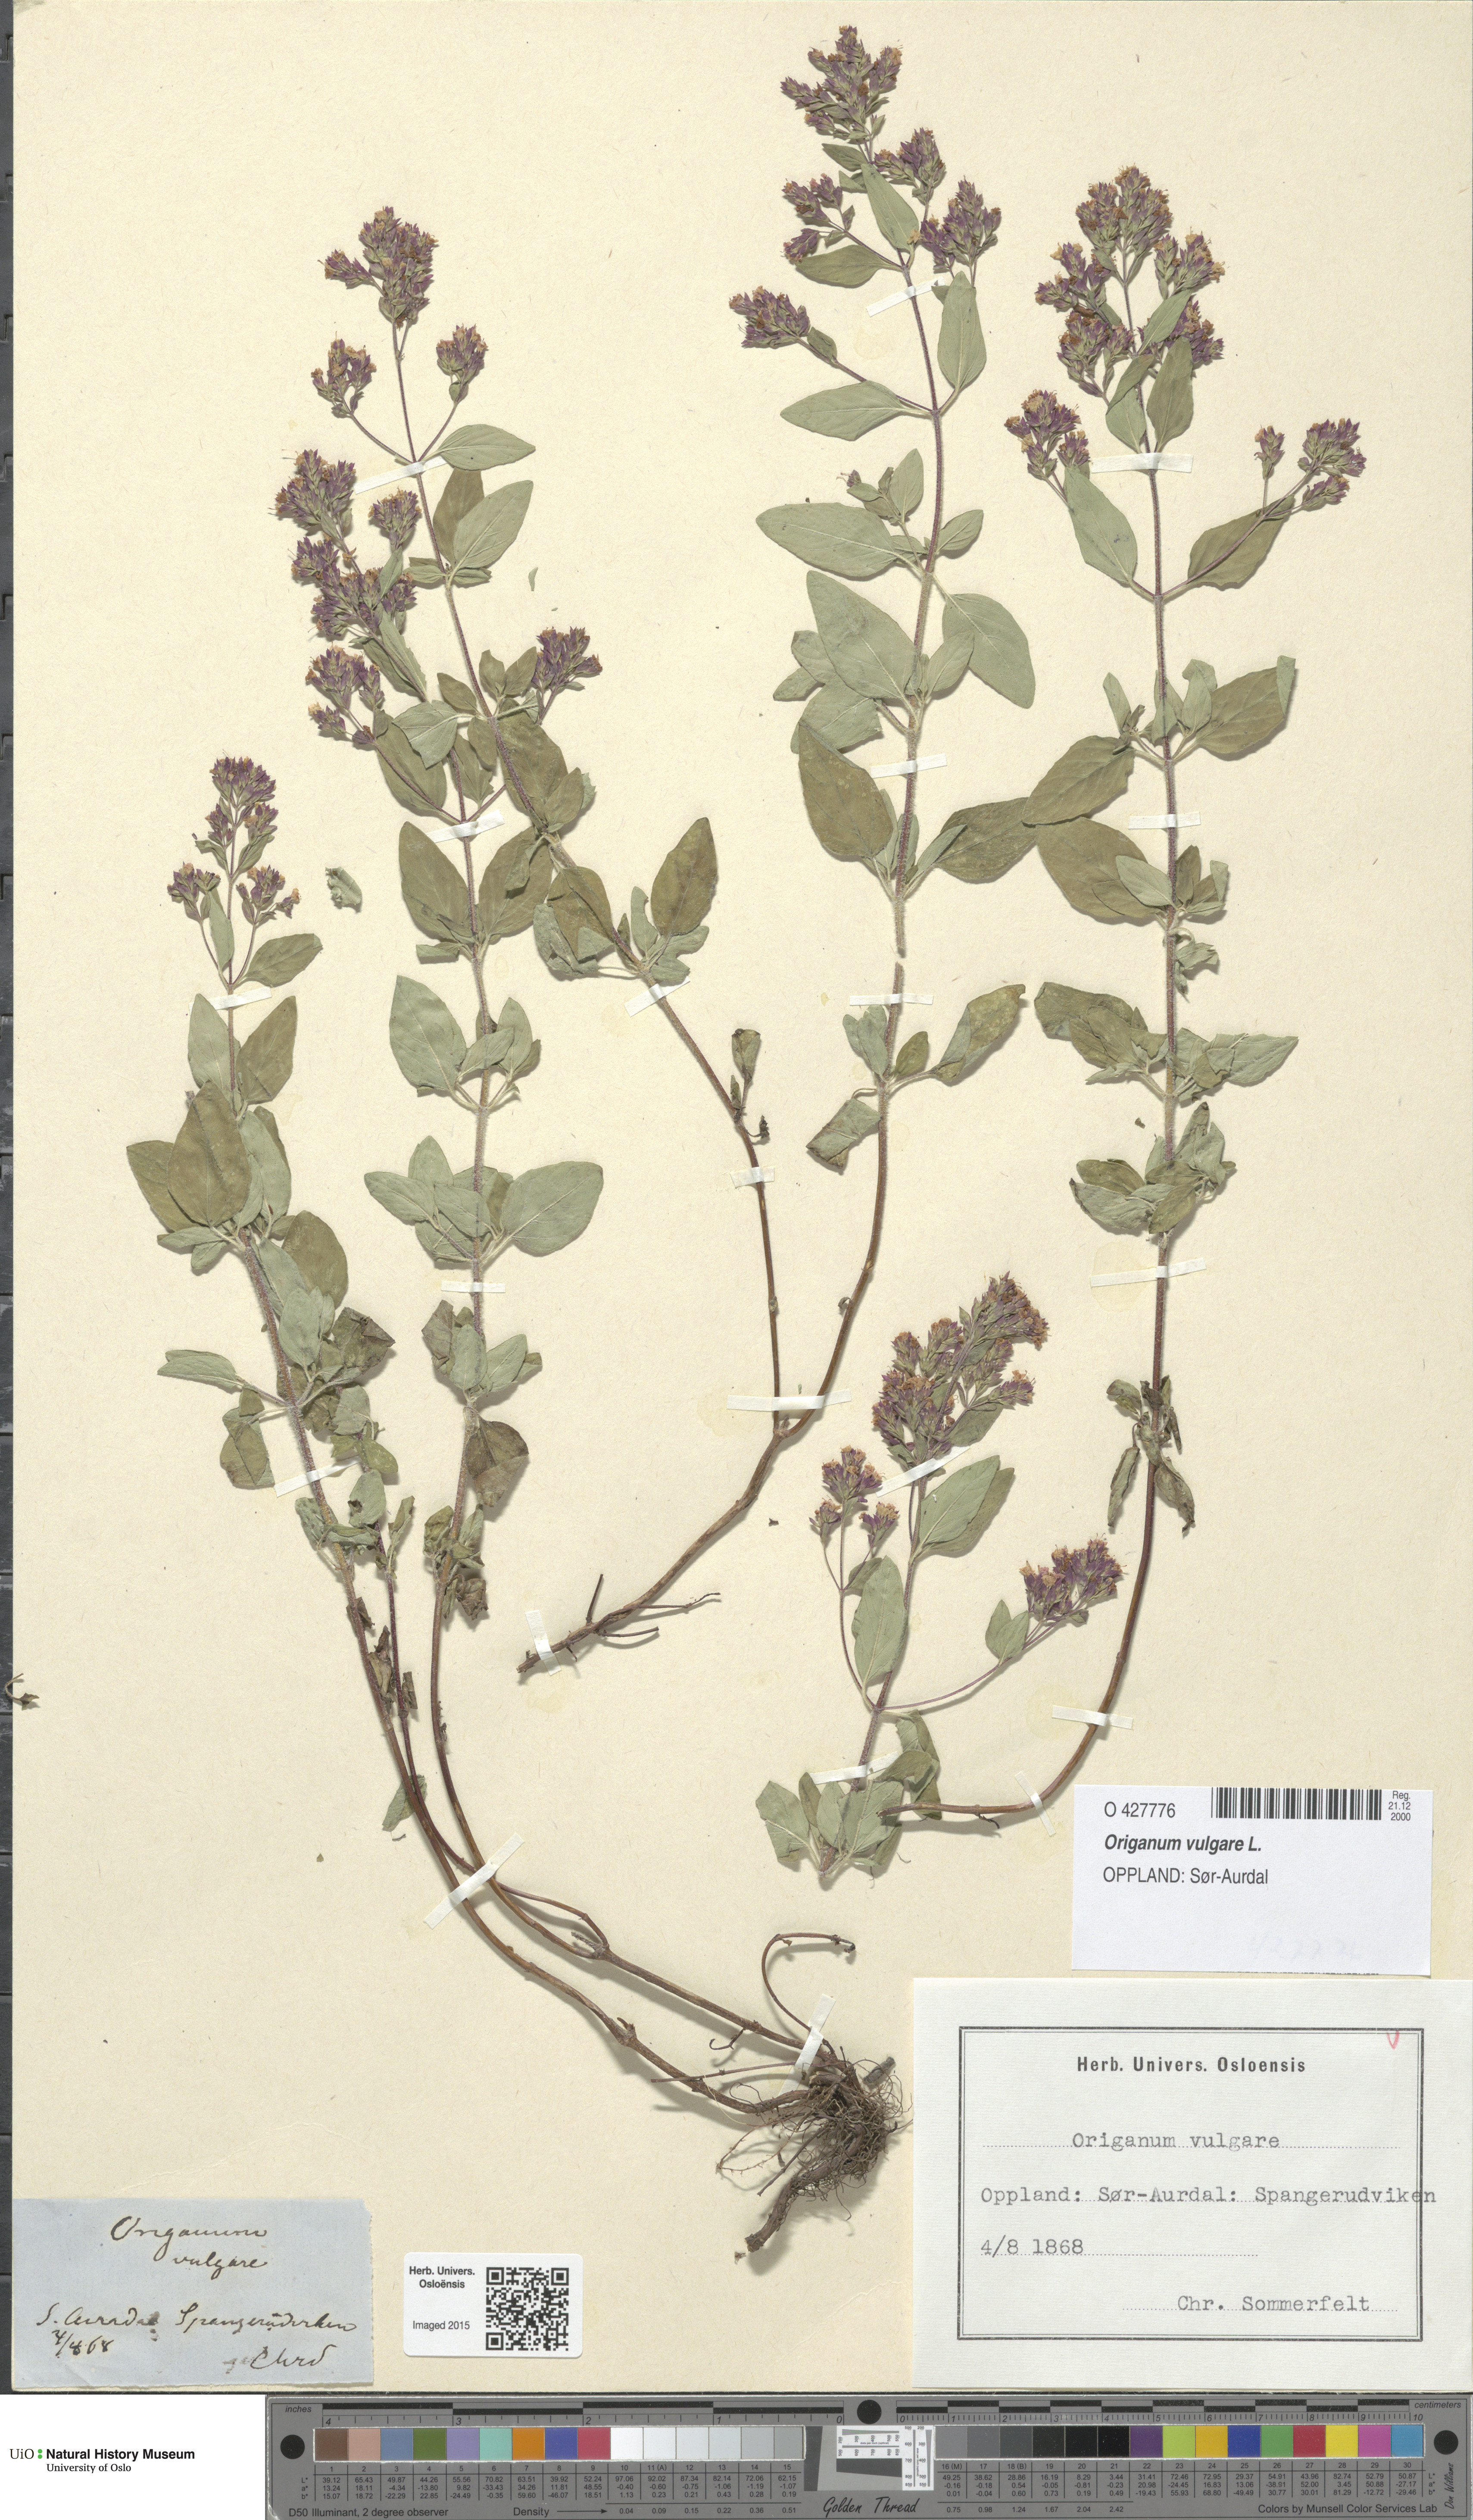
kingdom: Plantae
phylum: Tracheophyta
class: Magnoliopsida
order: Lamiales
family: Lamiaceae
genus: Origanum
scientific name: Origanum vulgare
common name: Wild marjoram
